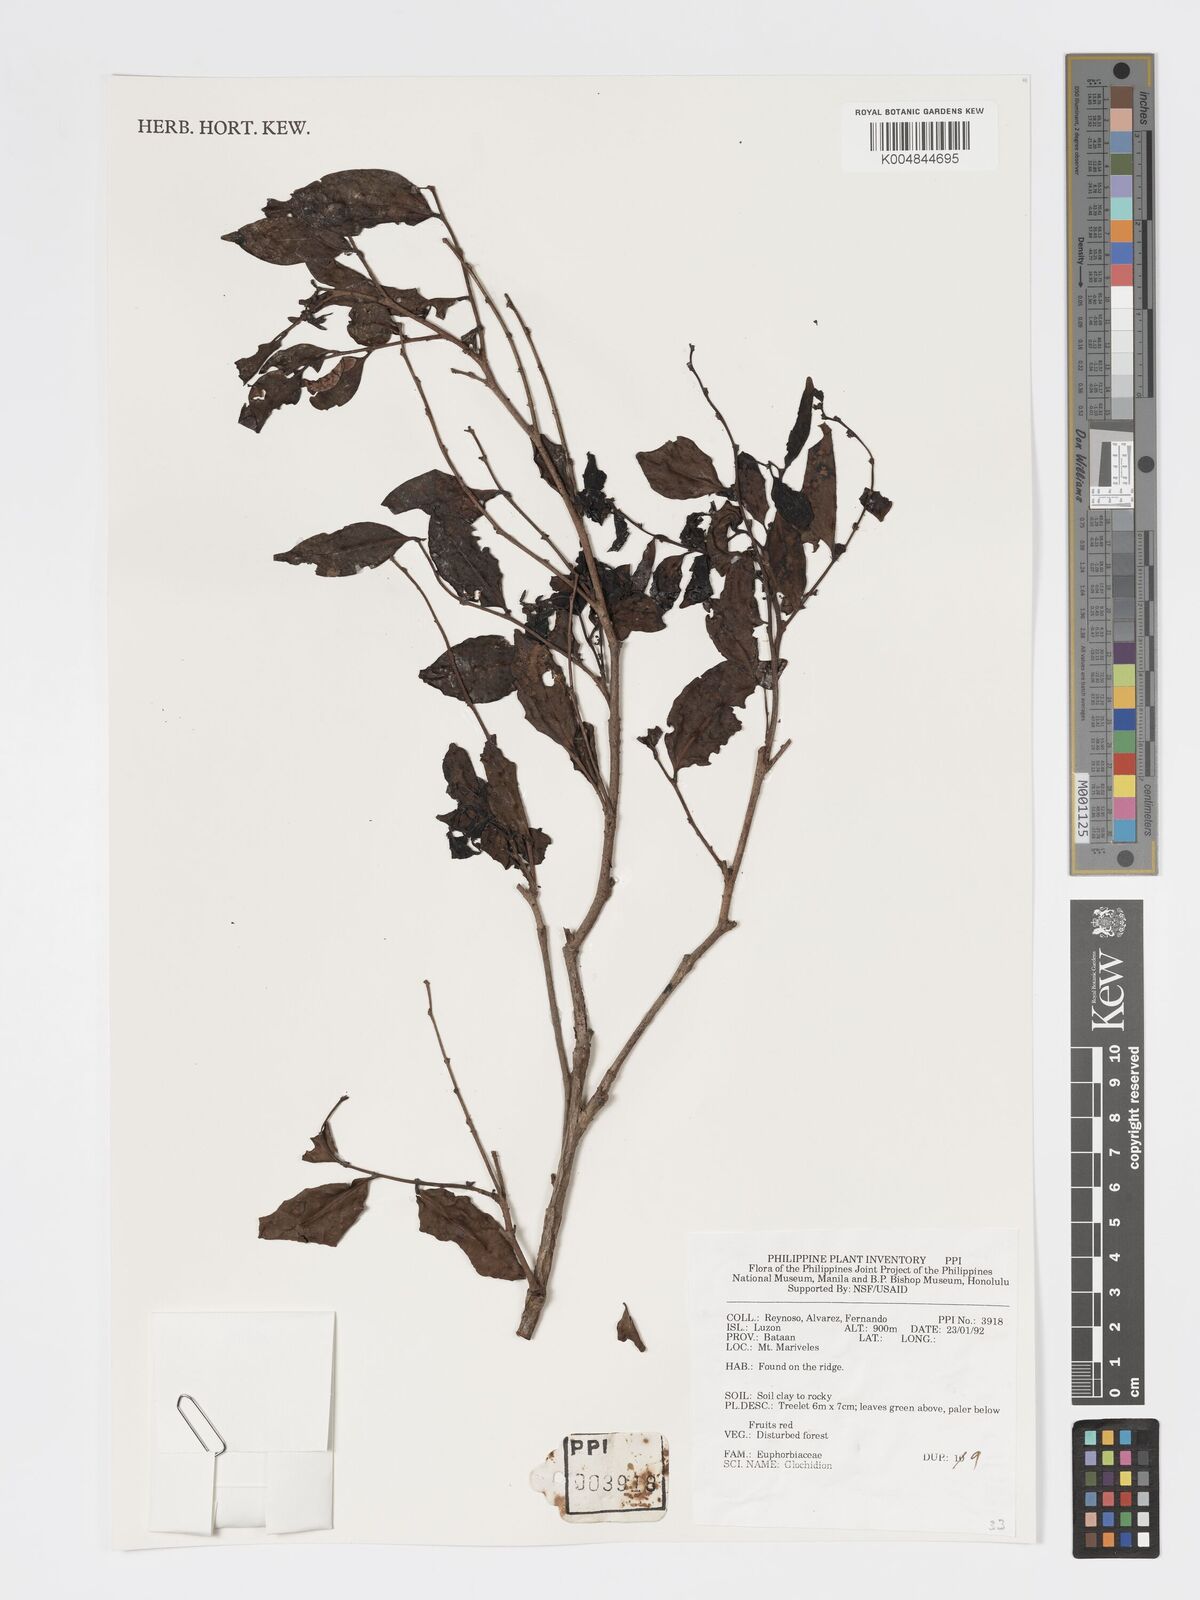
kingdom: Plantae
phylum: Tracheophyta
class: Magnoliopsida
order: Malpighiales
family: Phyllanthaceae
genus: Glochidion
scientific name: Glochidion
